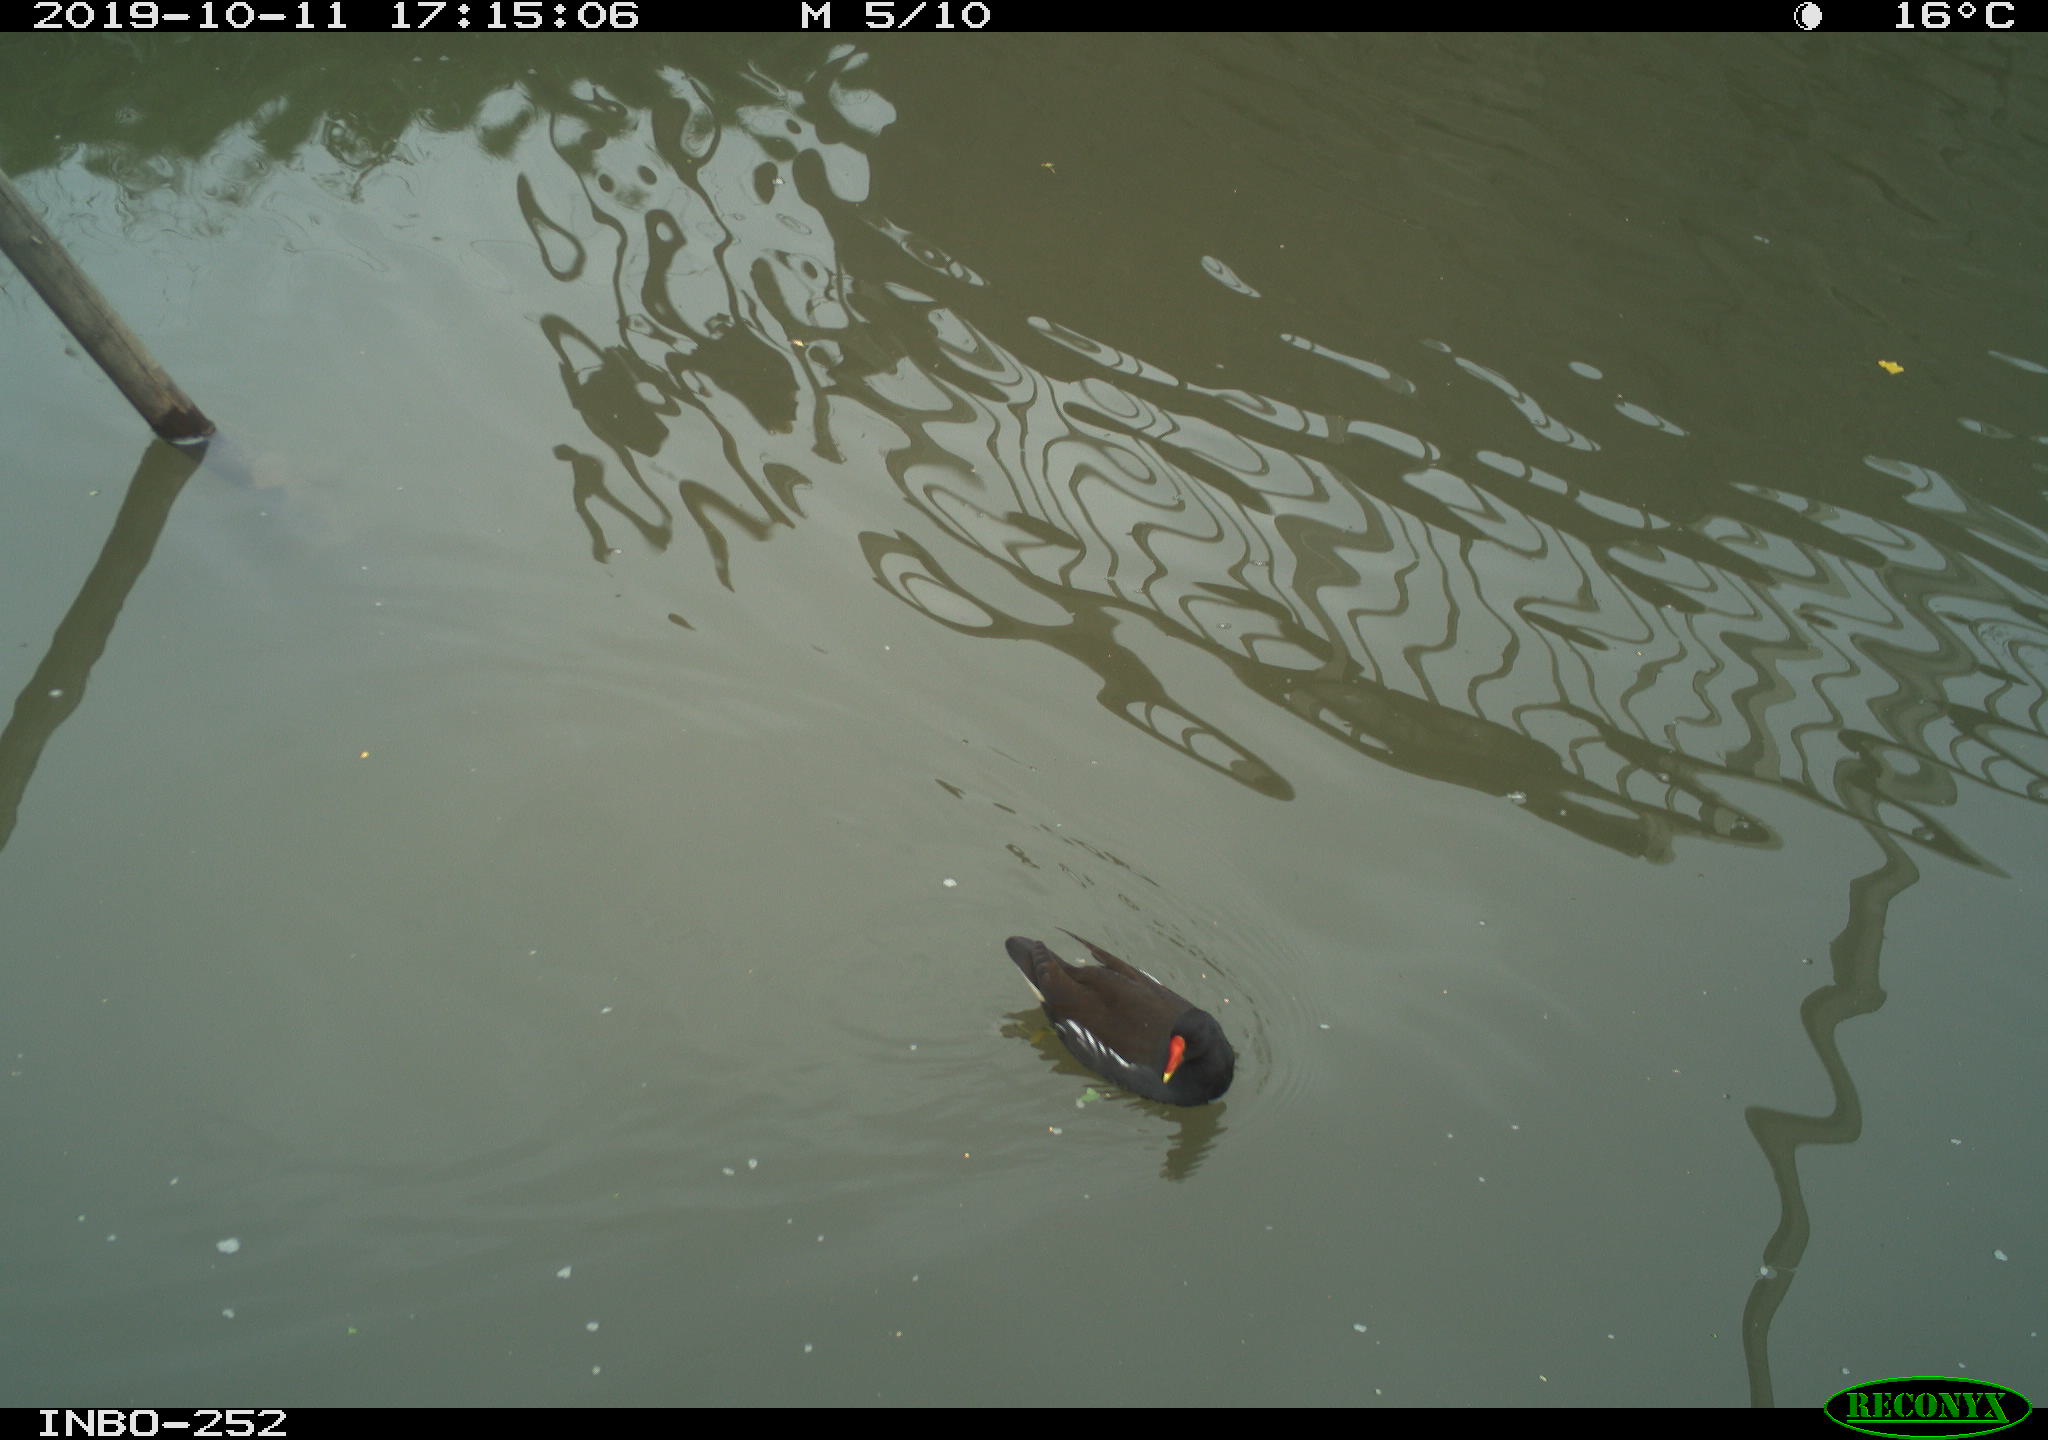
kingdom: Animalia
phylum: Chordata
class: Aves
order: Gruiformes
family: Rallidae
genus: Gallinula
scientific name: Gallinula chloropus
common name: Common moorhen
